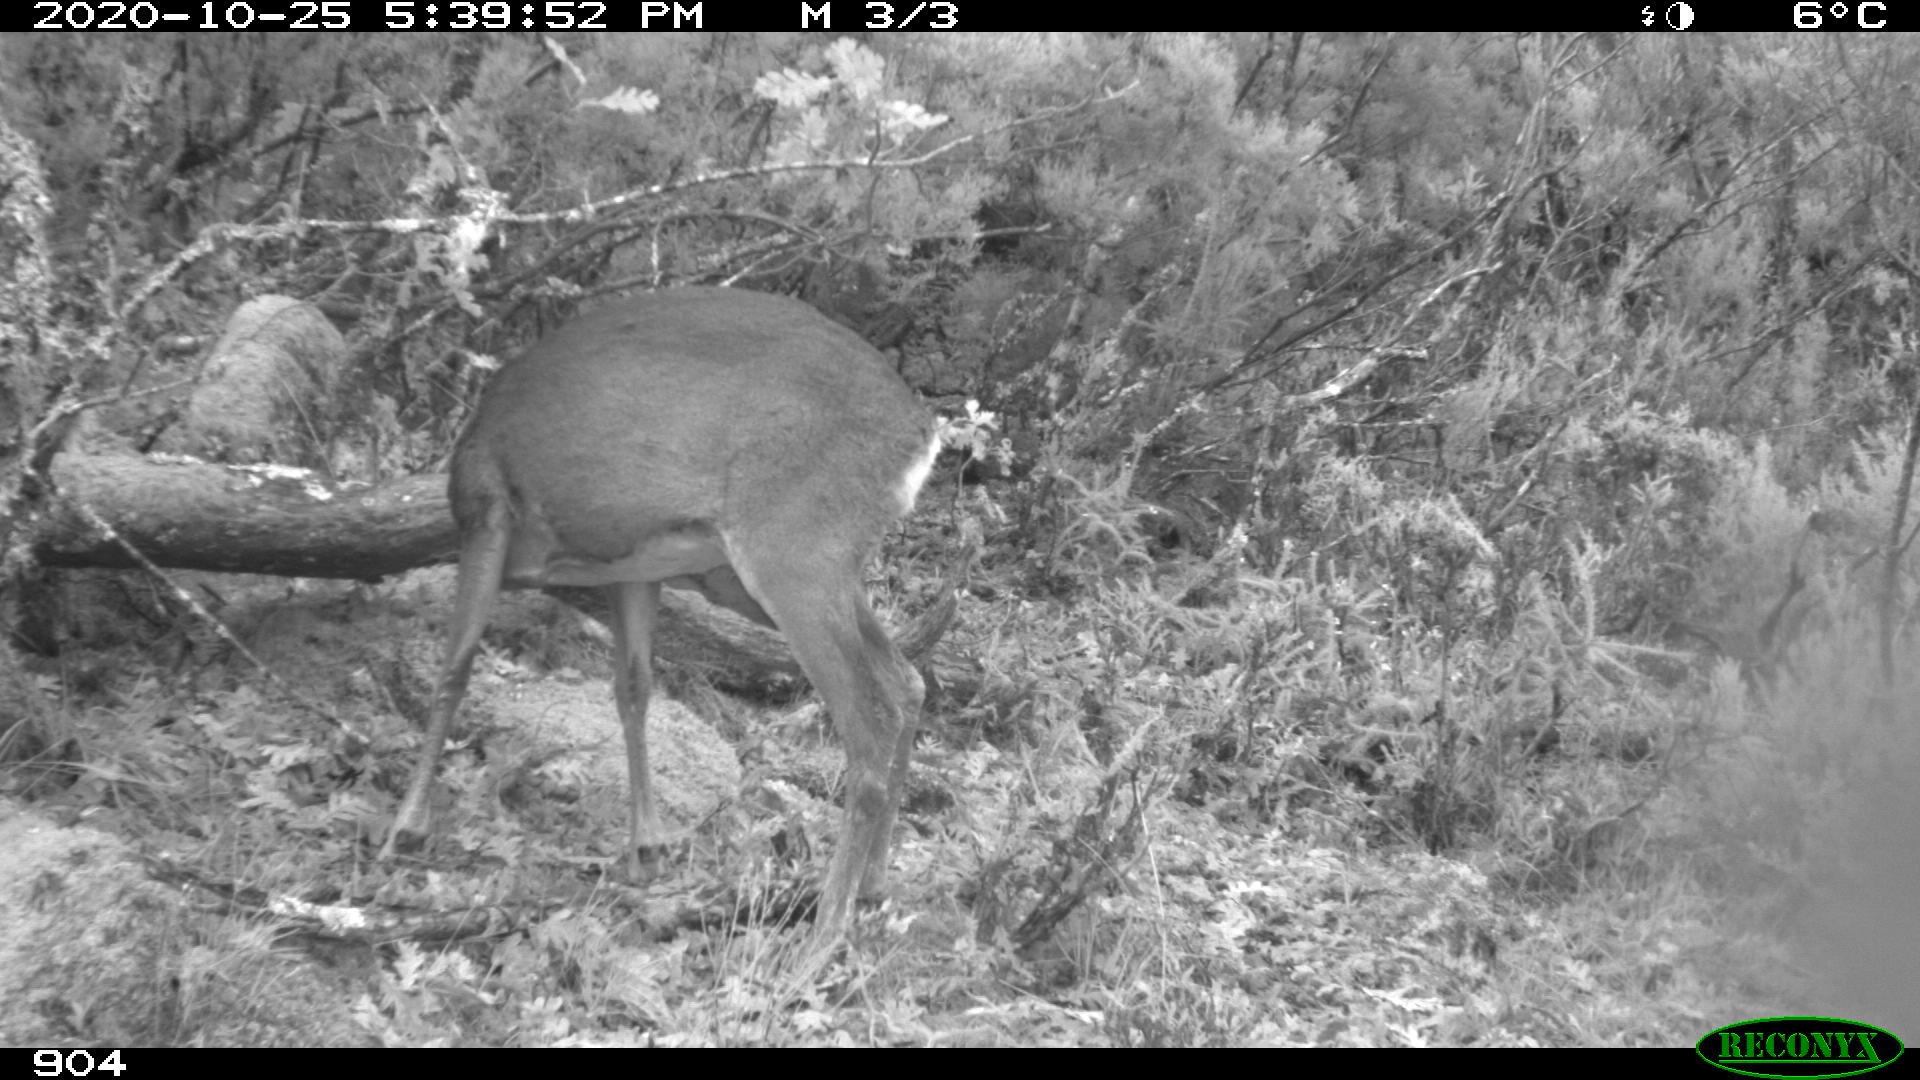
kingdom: Animalia
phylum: Chordata
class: Mammalia
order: Artiodactyla
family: Cervidae
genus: Capreolus
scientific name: Capreolus capreolus
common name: Western roe deer
